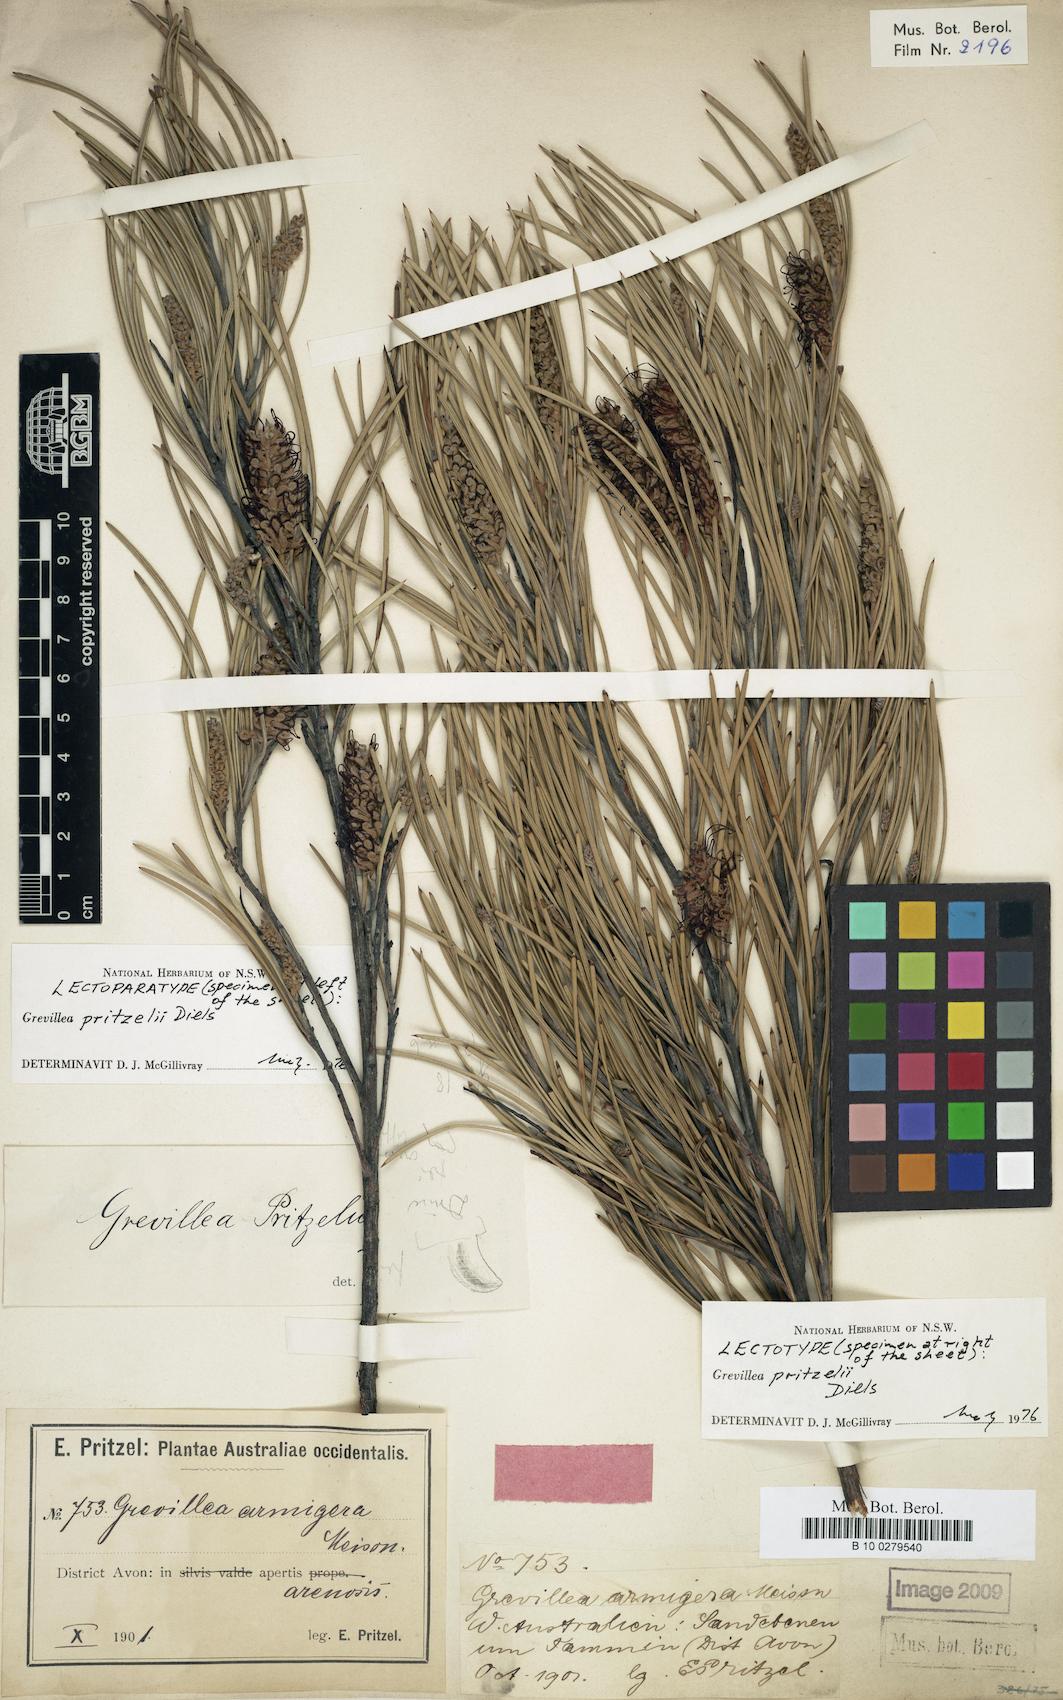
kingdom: Plantae
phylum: Tracheophyta
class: Magnoliopsida
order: Proteales
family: Proteaceae
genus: Grevillea
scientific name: Grevillea hookeriana
